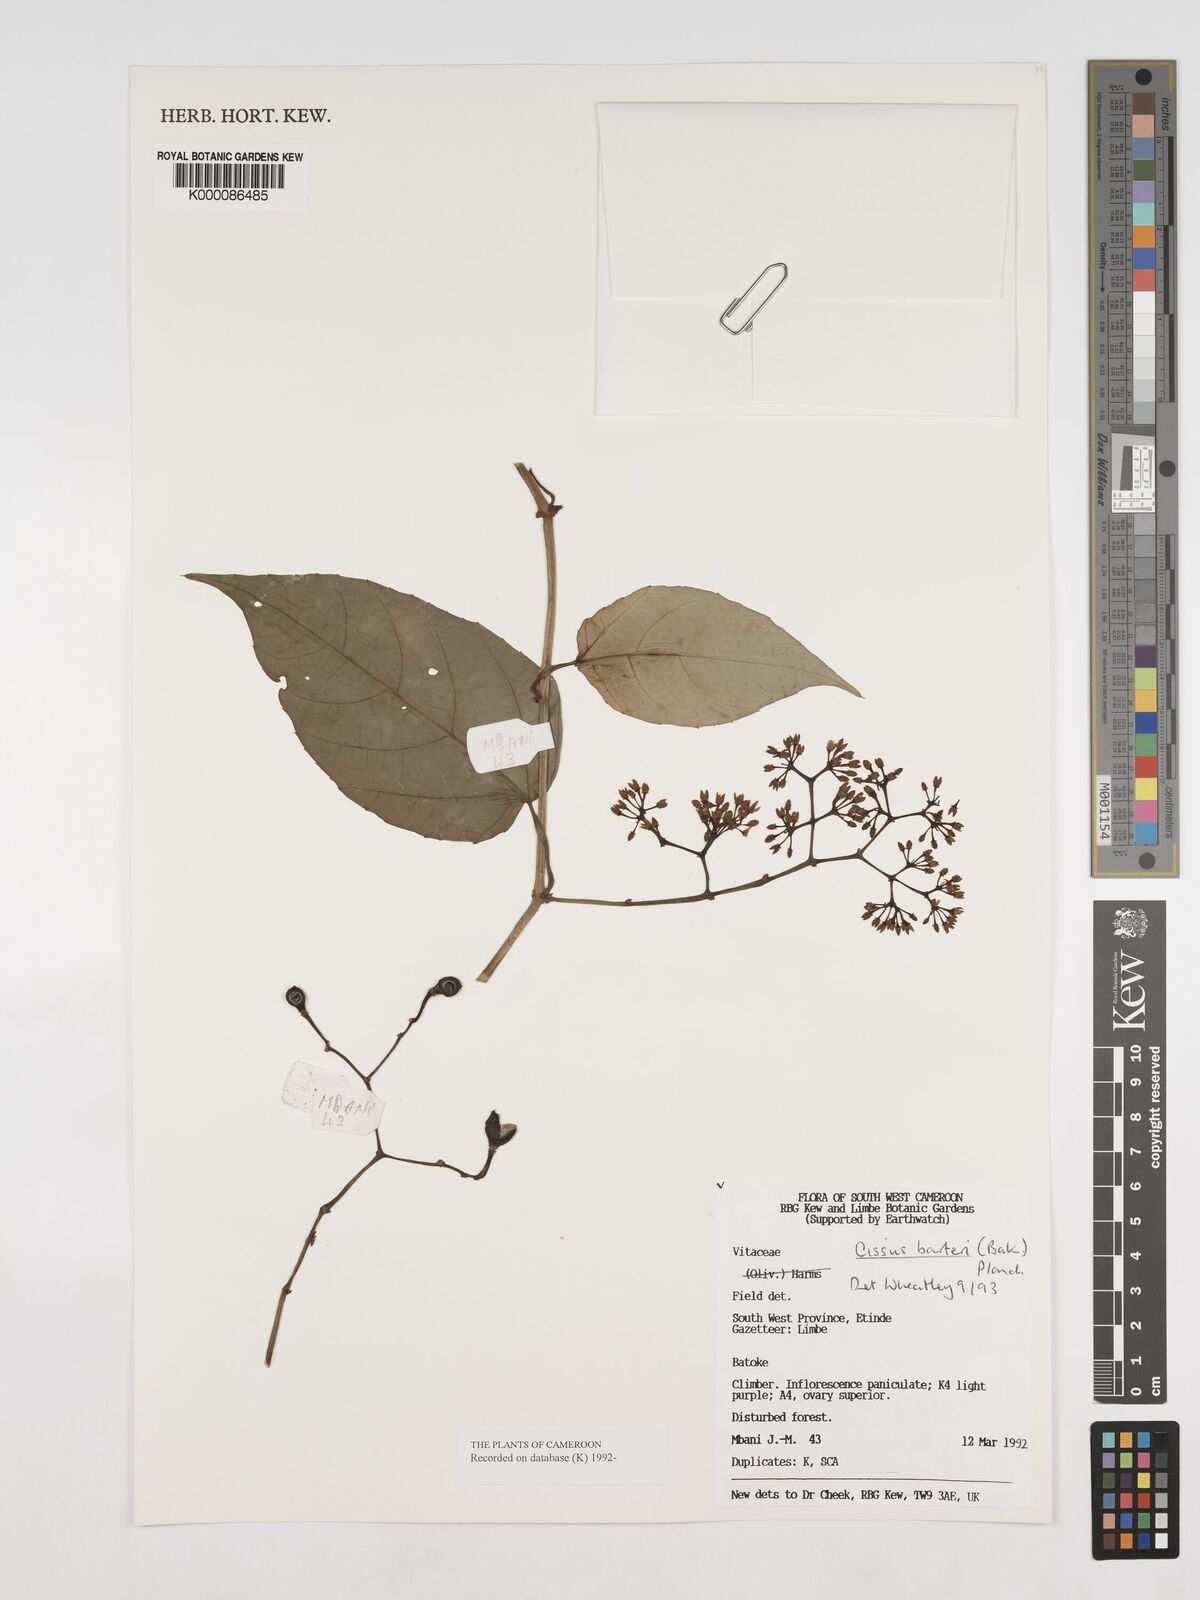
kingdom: Plantae
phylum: Tracheophyta
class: Magnoliopsida
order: Vitales
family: Vitaceae
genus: Cissus
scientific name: Cissus barteri
